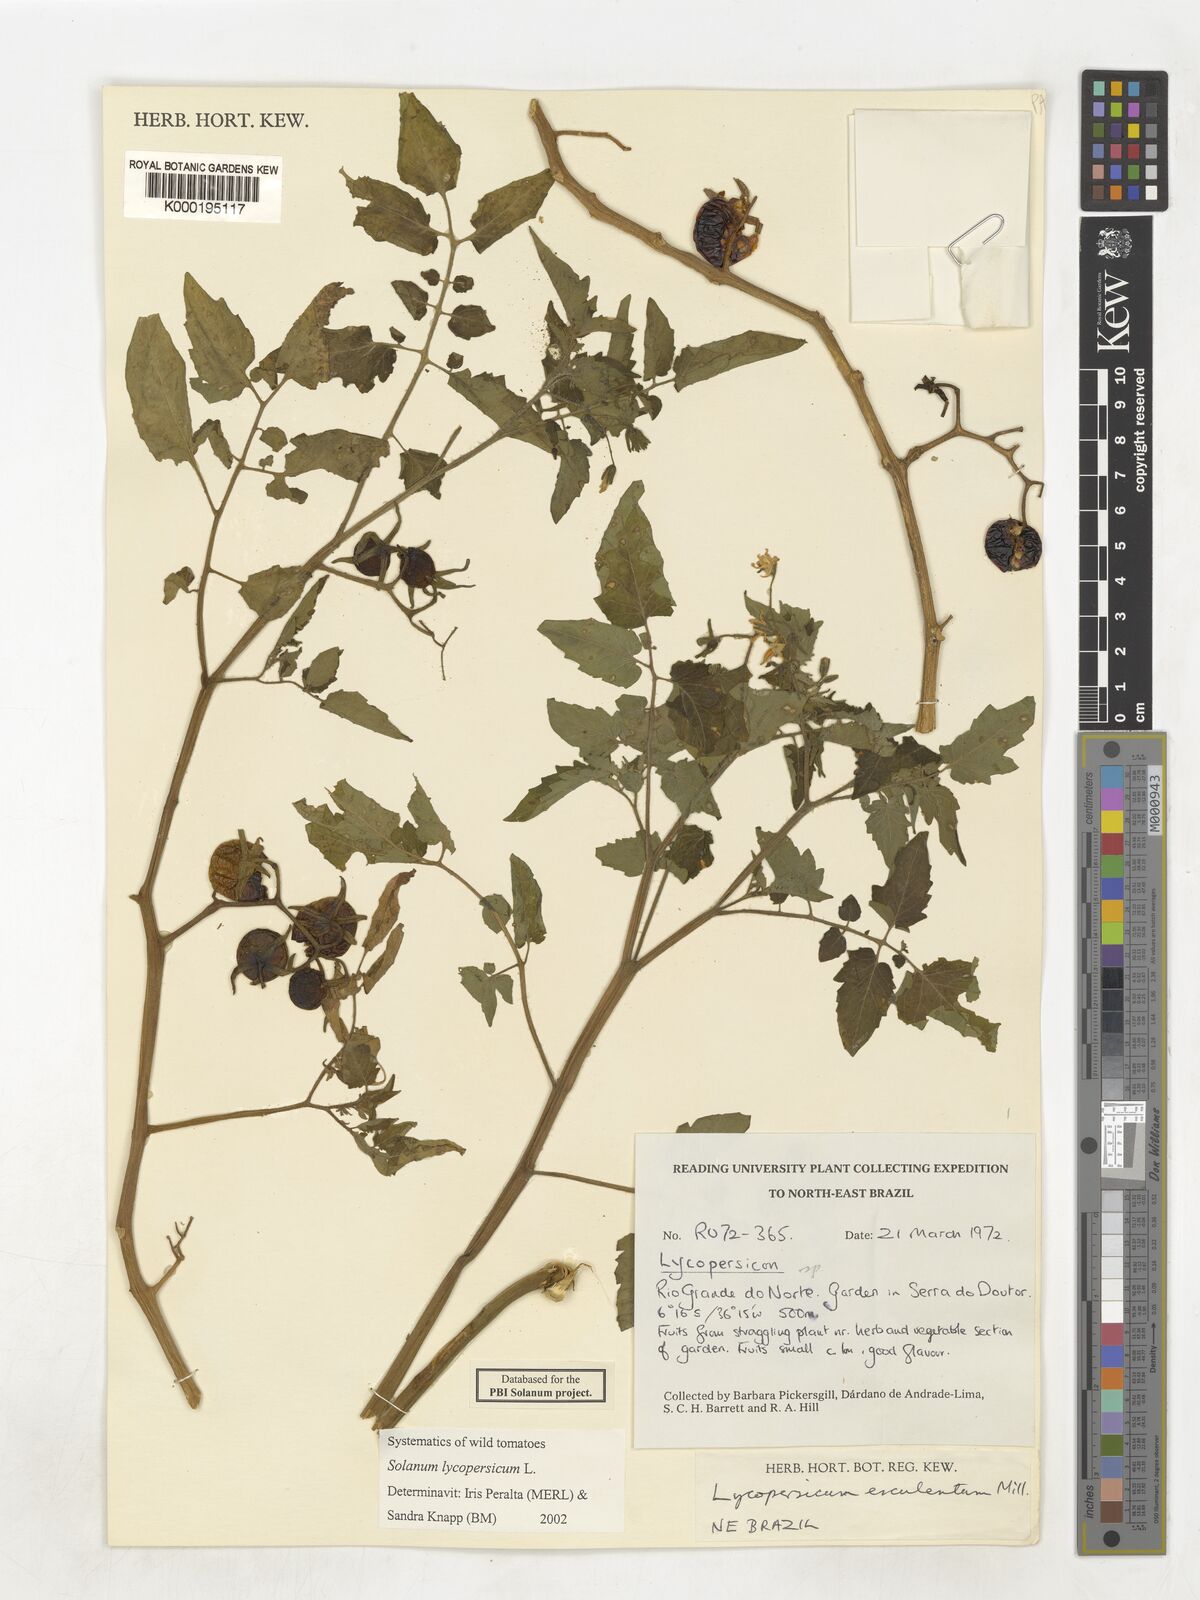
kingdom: Plantae
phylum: Tracheophyta
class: Magnoliopsida
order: Solanales
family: Solanaceae
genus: Solanum
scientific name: Solanum lycopersicum
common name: Garden tomato
